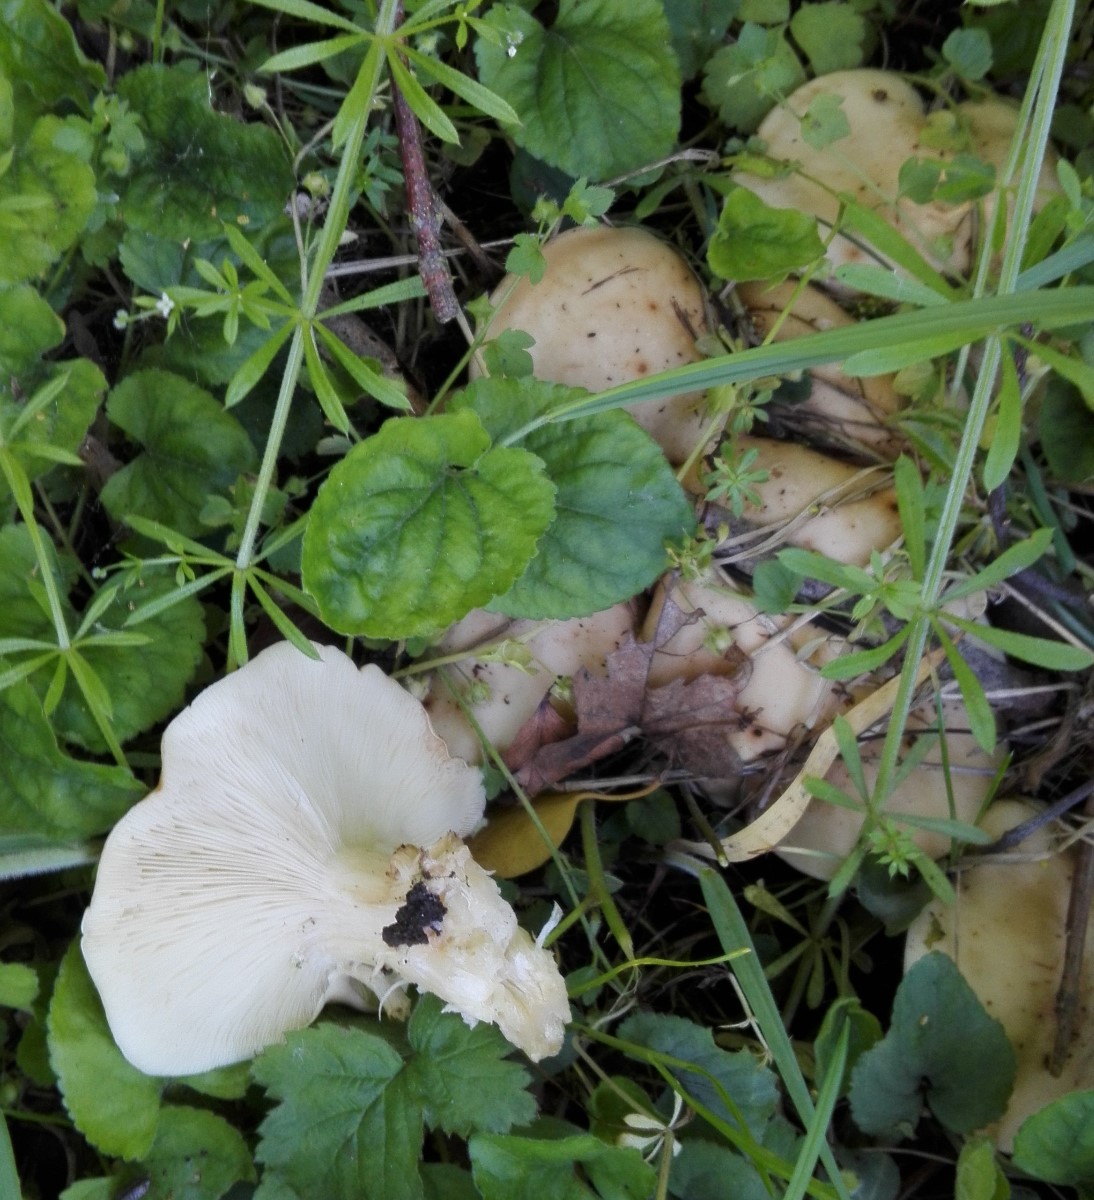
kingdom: Fungi
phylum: Basidiomycota
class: Agaricomycetes
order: Agaricales
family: Lyophyllaceae
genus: Calocybe
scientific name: Calocybe gambosa
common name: vårmusseron
